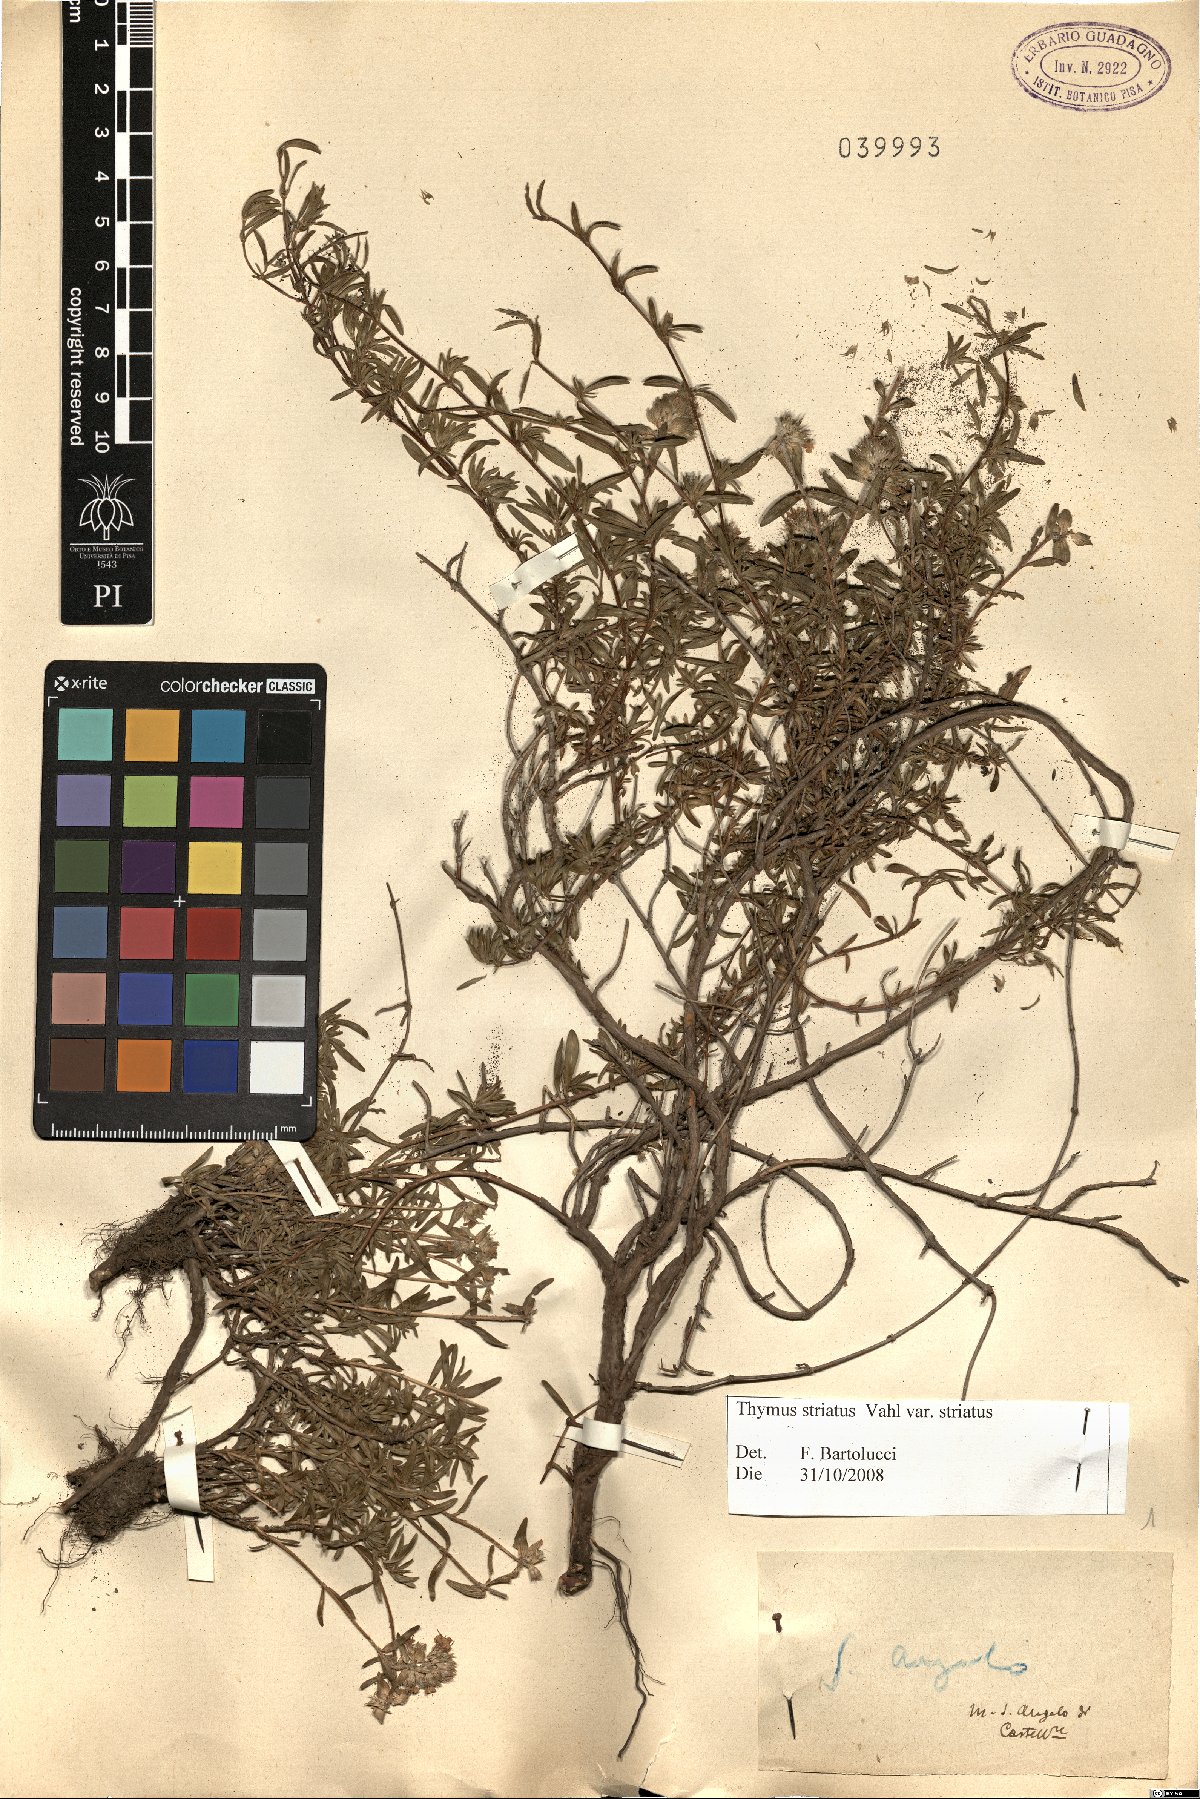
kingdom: Plantae
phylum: Tracheophyta
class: Magnoliopsida
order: Lamiales
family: Lamiaceae
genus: Thymus
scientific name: Thymus striatus
